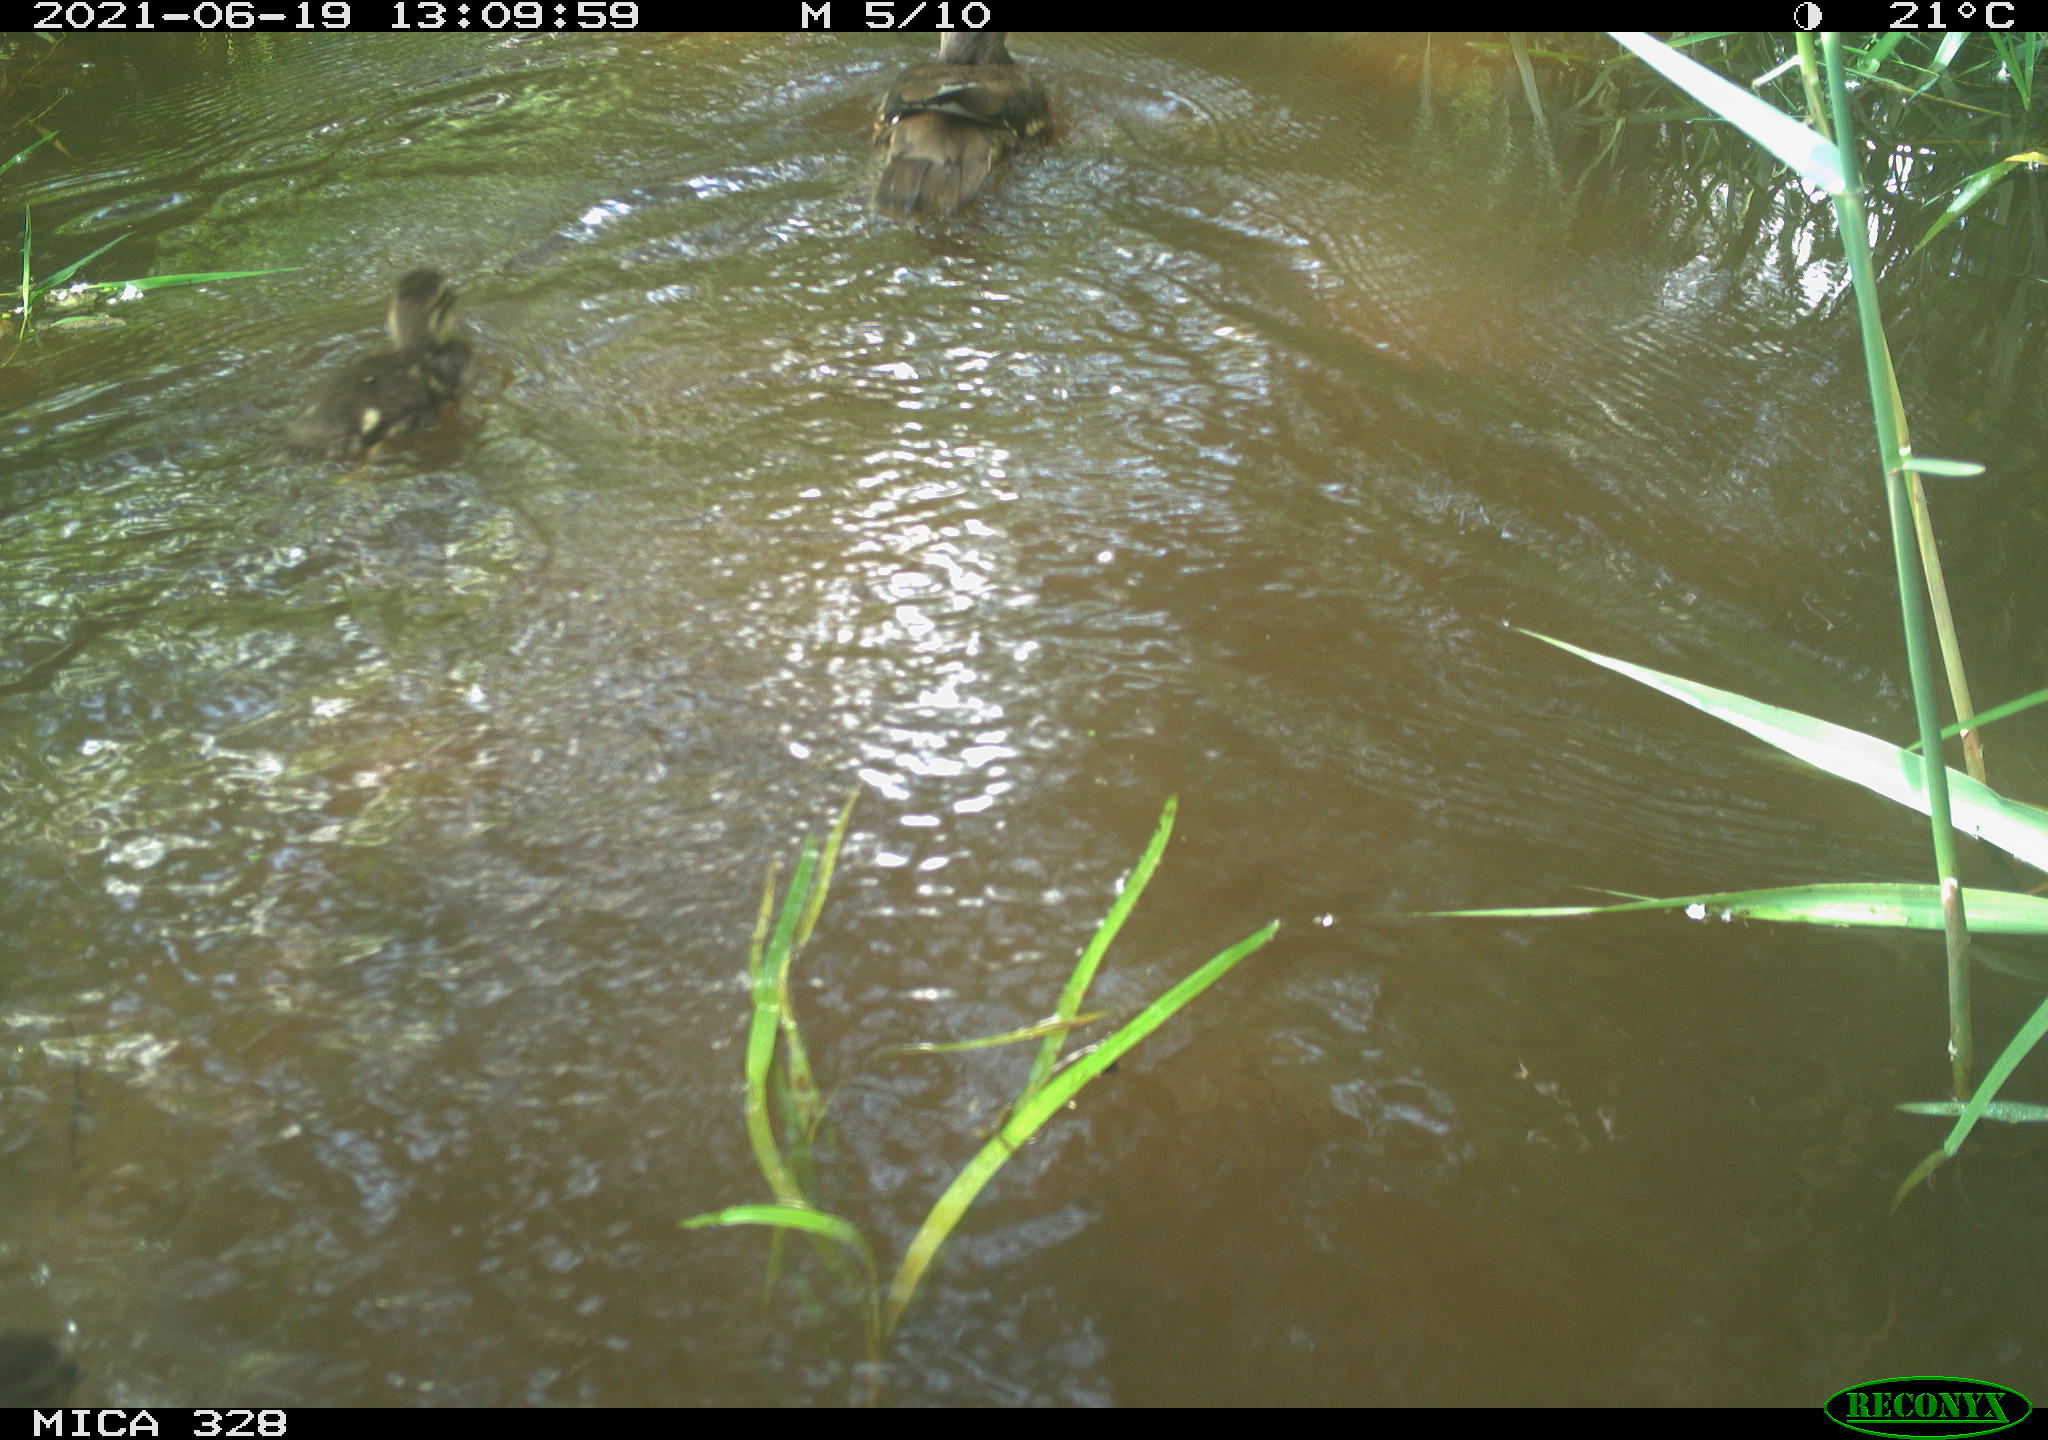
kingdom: Animalia
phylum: Chordata
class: Aves
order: Anseriformes
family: Anatidae
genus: Aix
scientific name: Aix galericulata
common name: Mandarin duck
